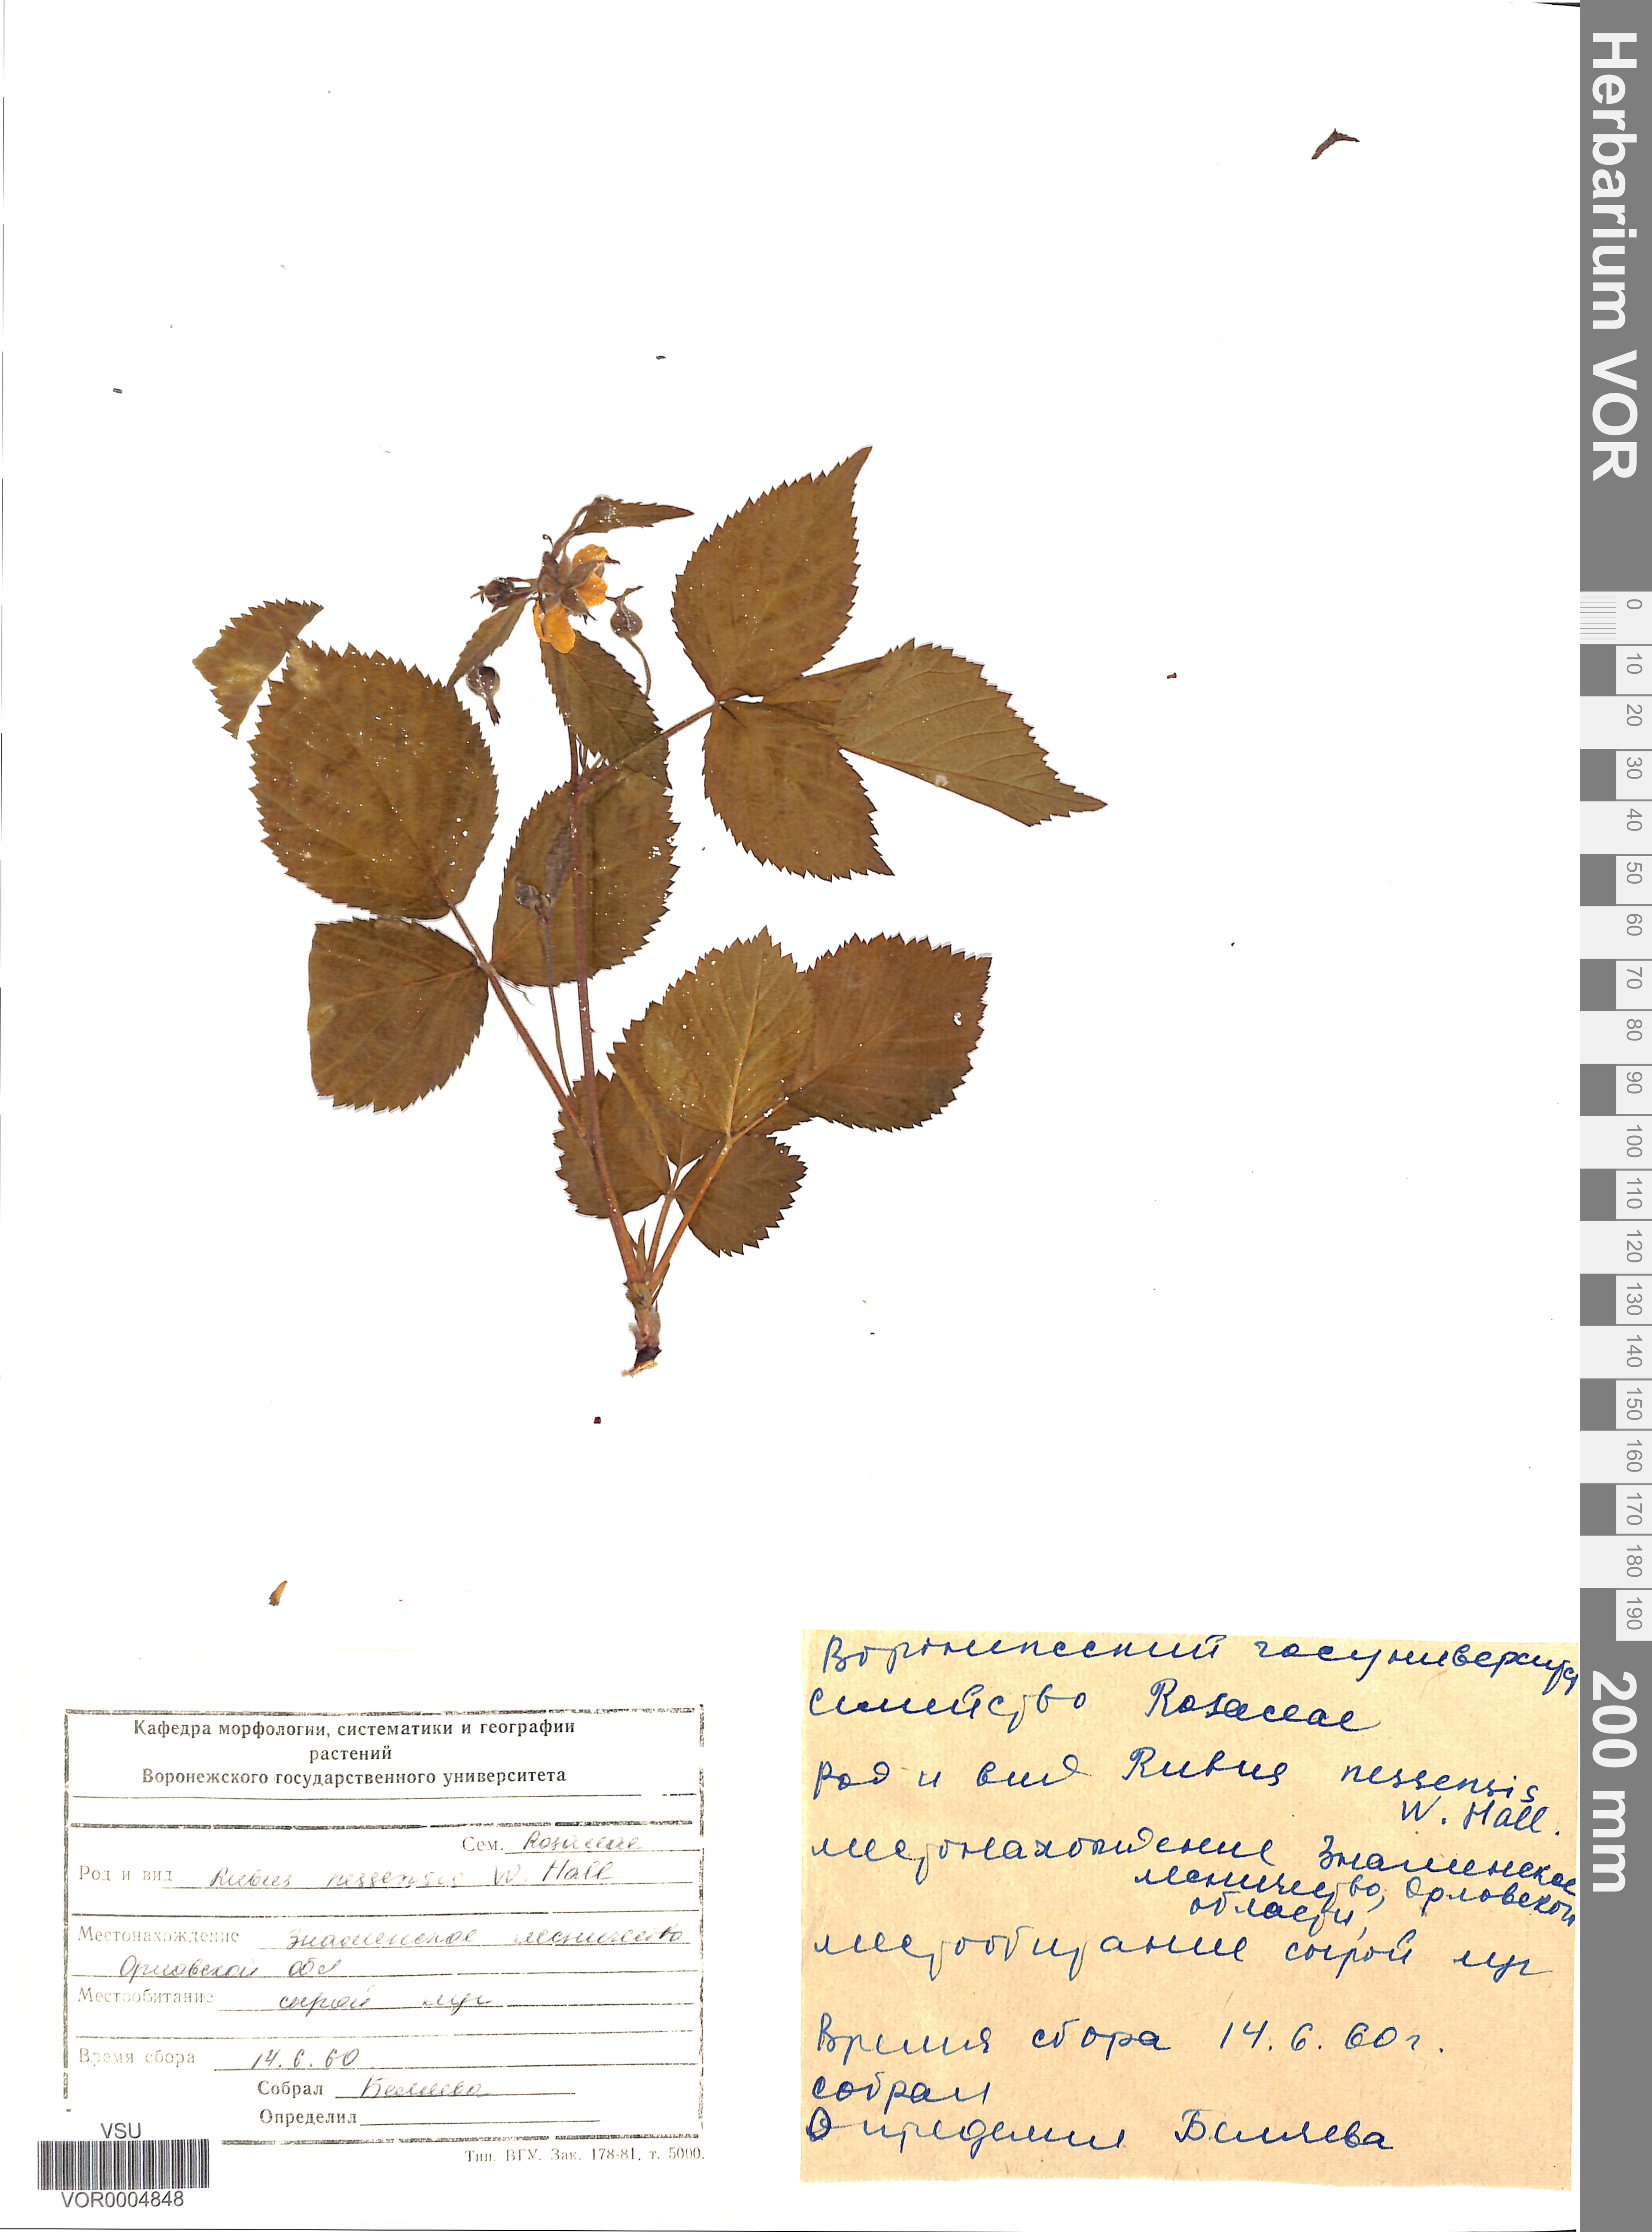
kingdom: Plantae
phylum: Tracheophyta
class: Magnoliopsida
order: Rosales
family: Rosaceae
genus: Rubus
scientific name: Rubus polonicus
